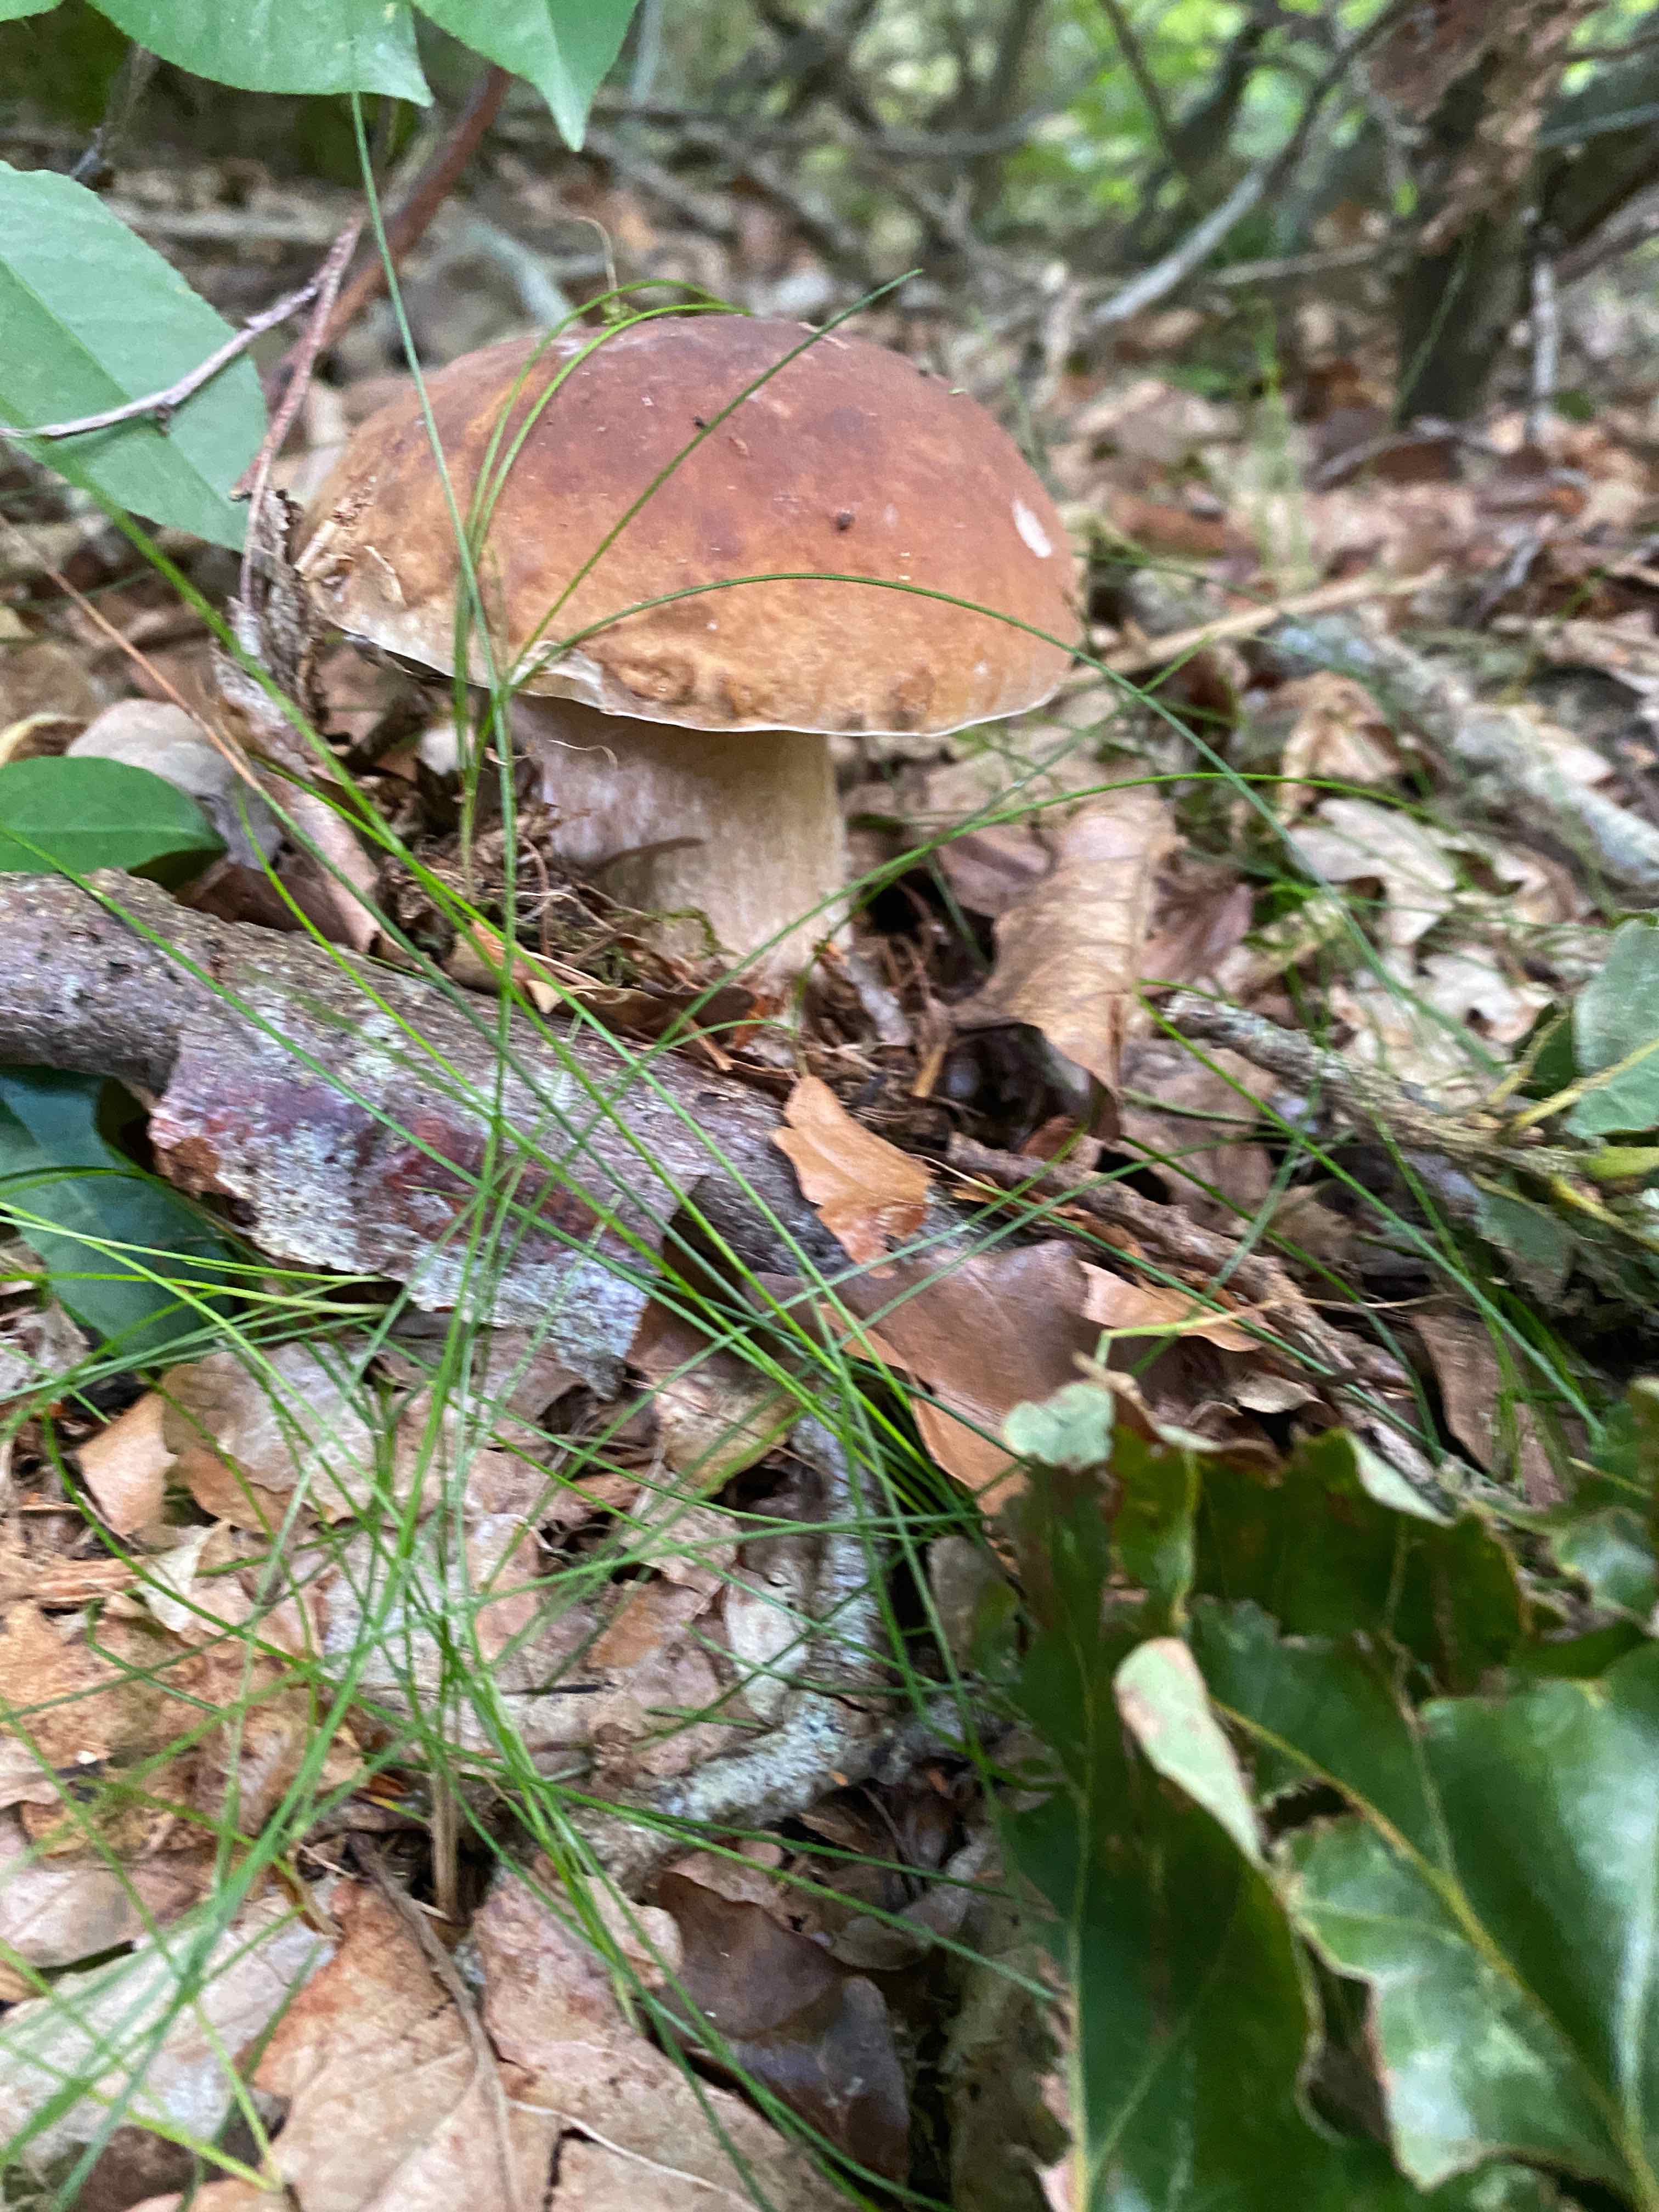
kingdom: Fungi
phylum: Basidiomycota
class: Agaricomycetes
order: Boletales
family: Boletaceae
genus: Boletus
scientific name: Boletus edulis
